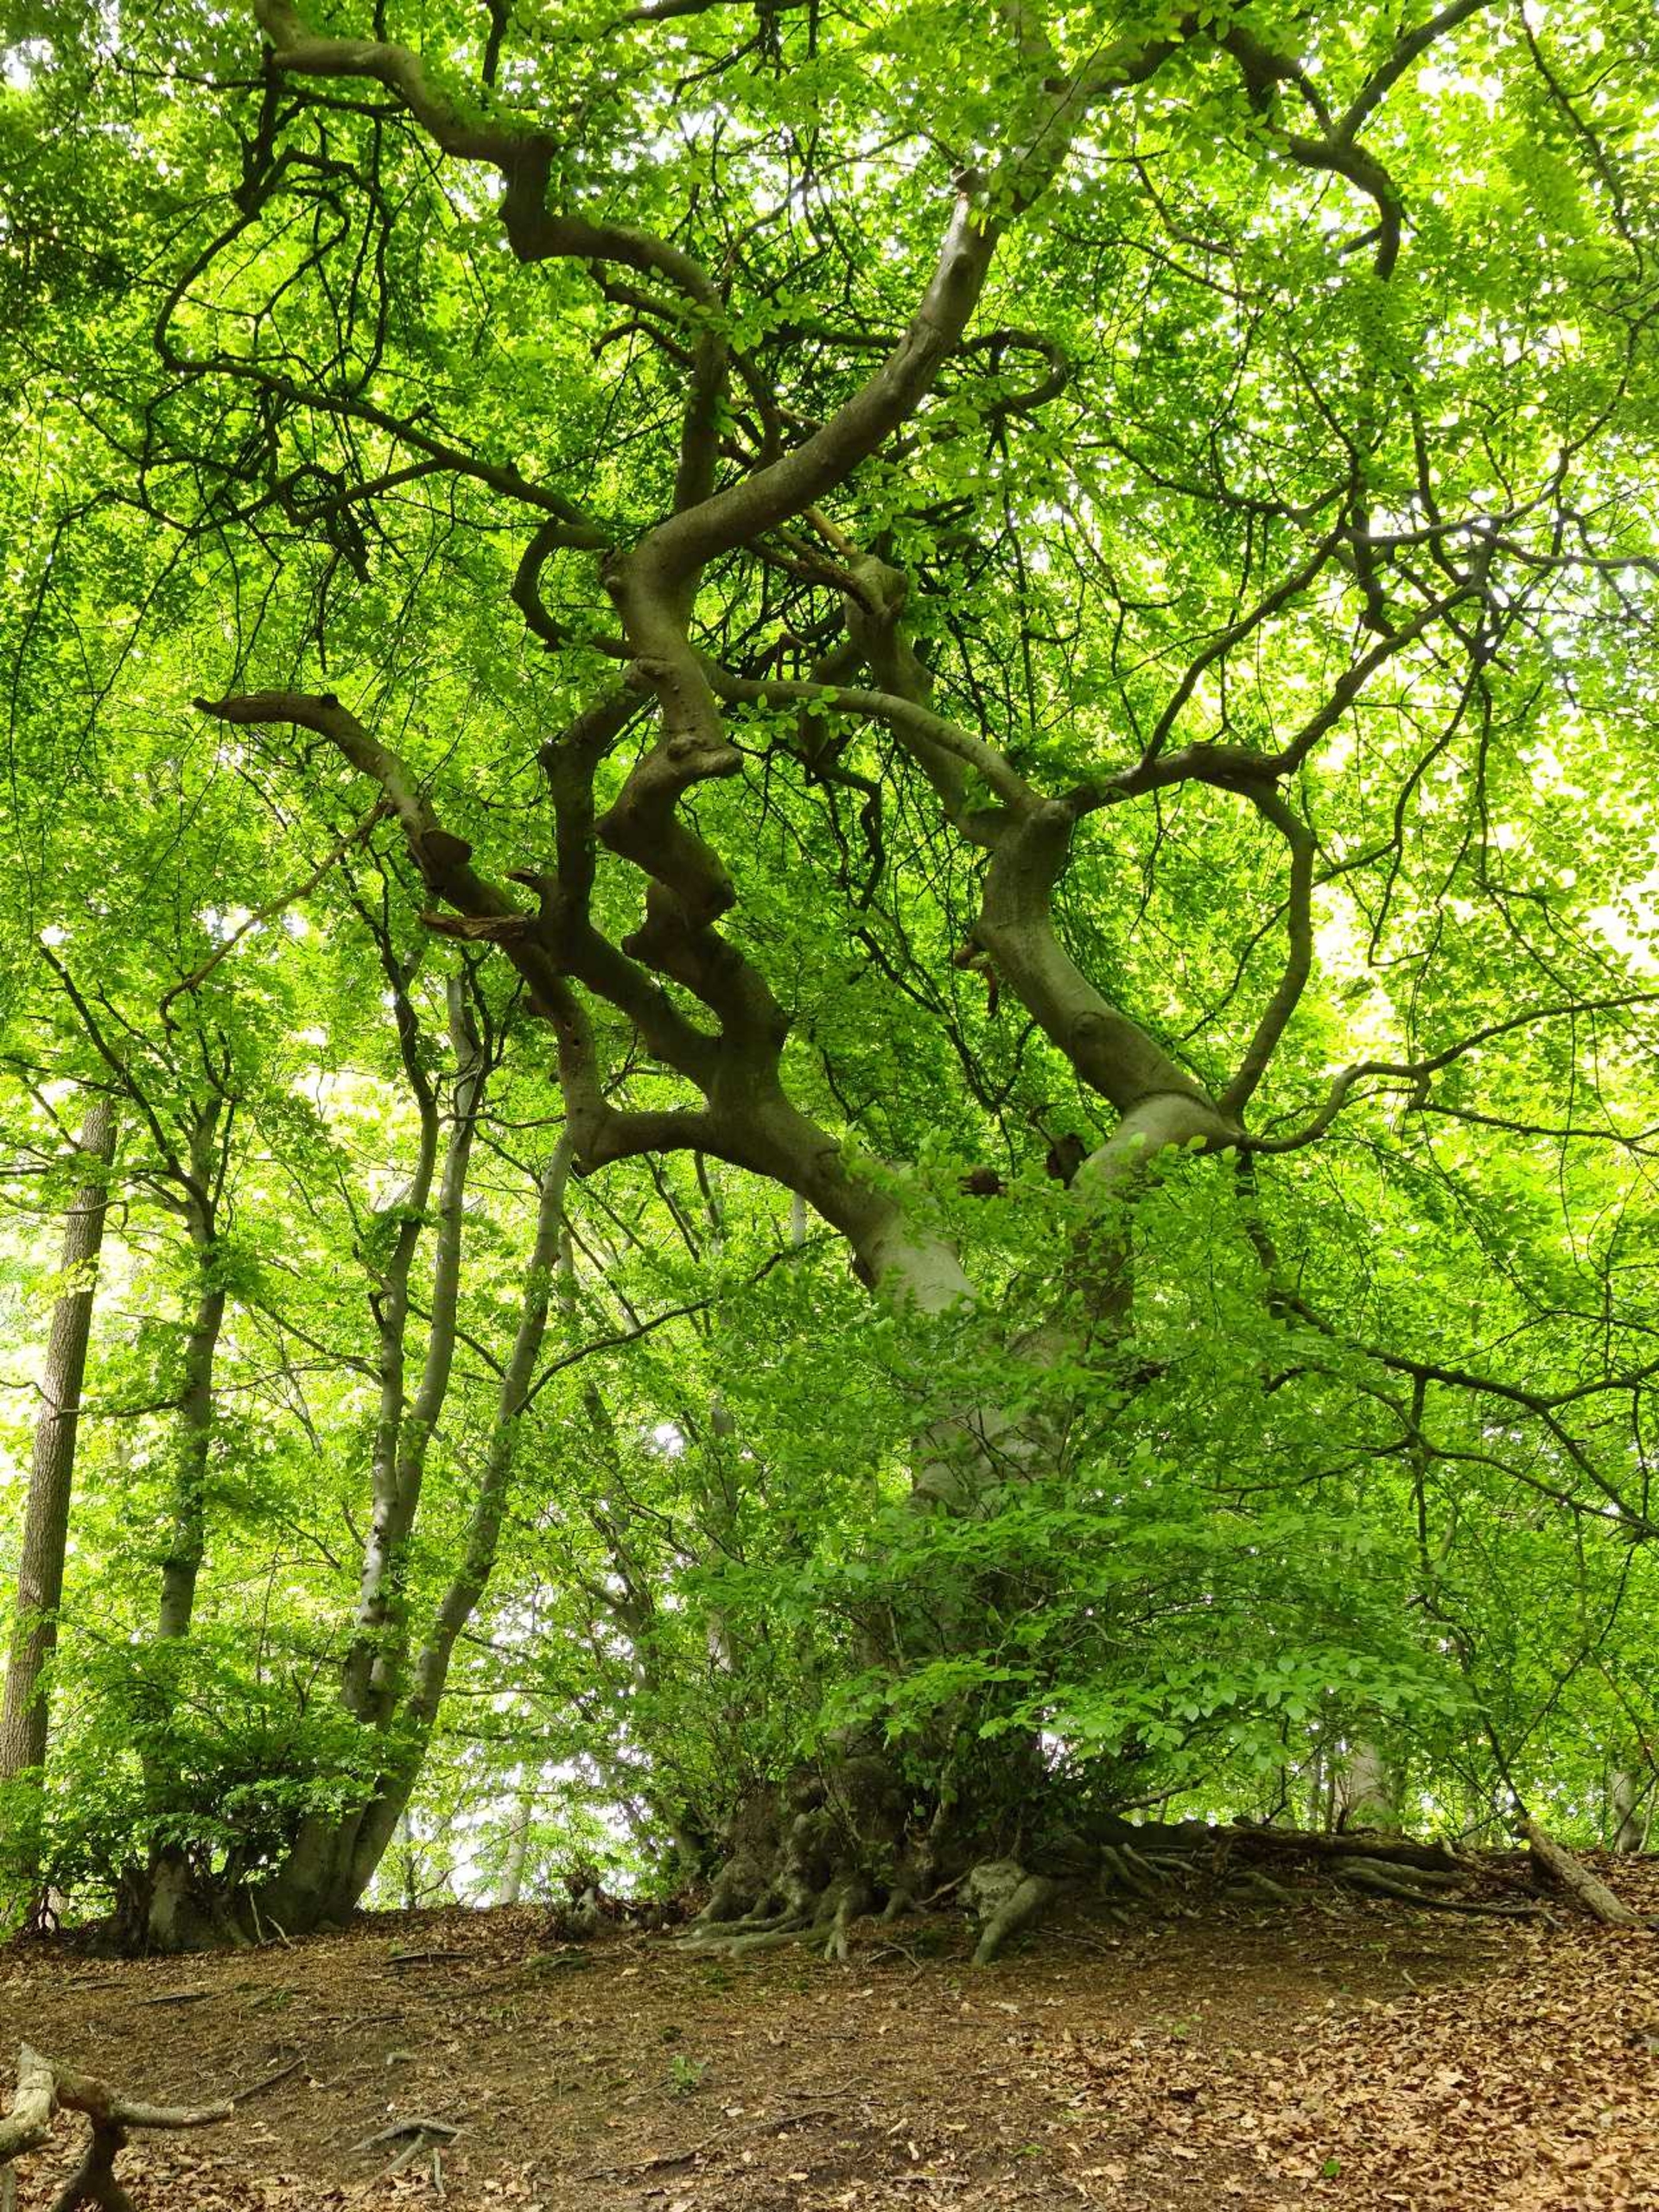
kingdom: Plantae
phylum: Tracheophyta
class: Magnoliopsida
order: Fagales
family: Fagaceae
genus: Fagus
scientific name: Fagus sylvatica
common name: Bøg
